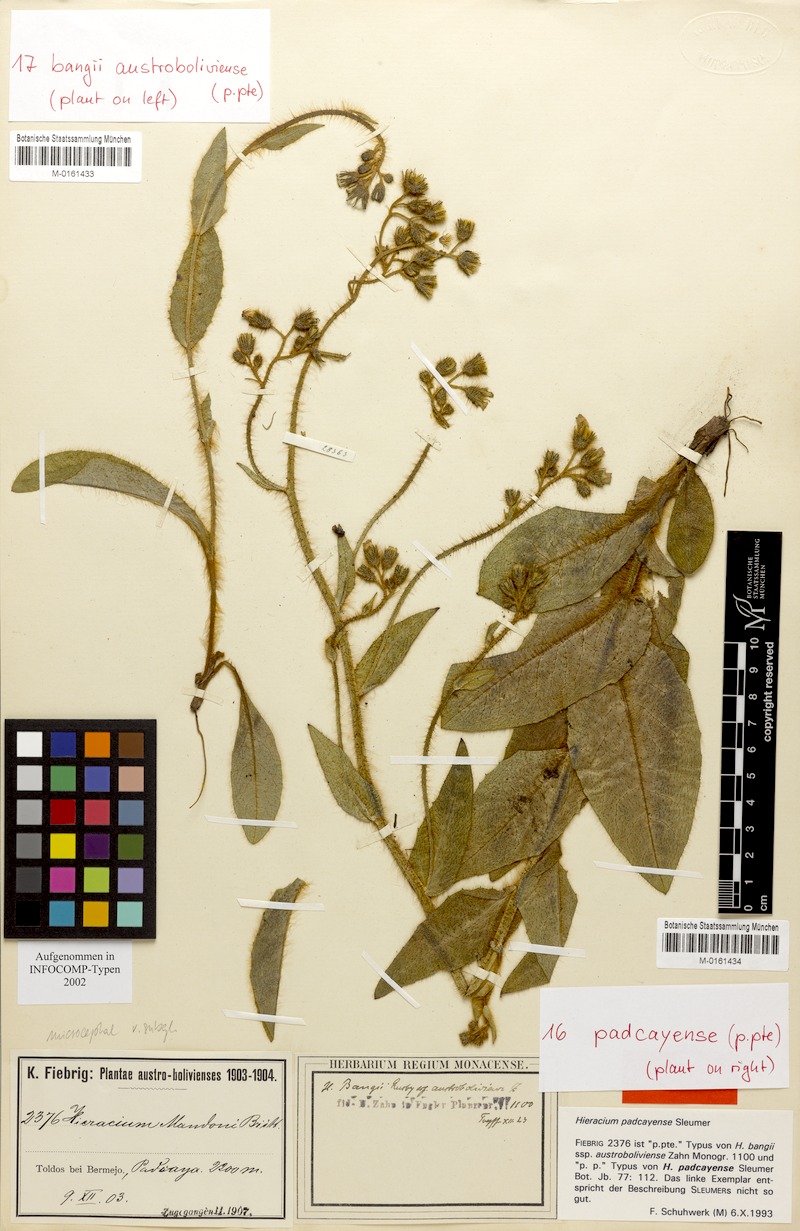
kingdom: Plantae
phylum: Tracheophyta
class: Magnoliopsida
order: Asterales
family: Asteraceae
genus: Hieracium
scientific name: Hieracium padcayense
